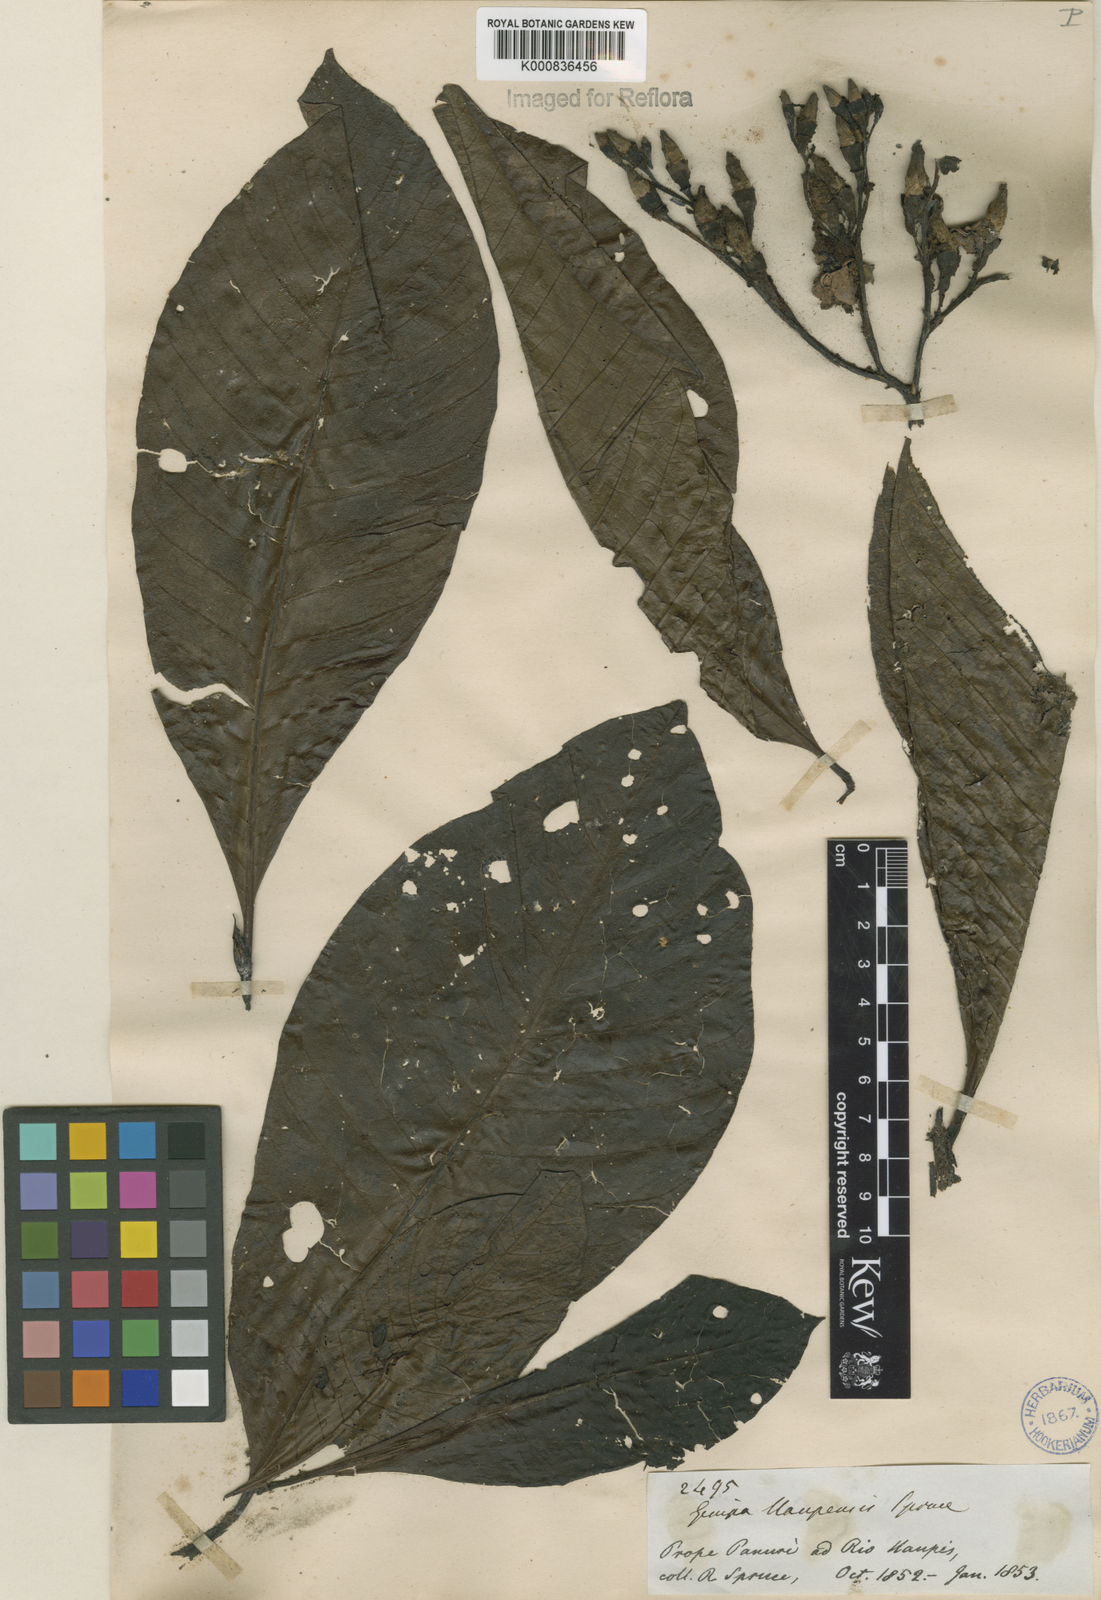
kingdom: Plantae
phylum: Tracheophyta
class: Magnoliopsida
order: Gentianales
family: Rubiaceae
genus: Genipa
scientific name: Genipa americana
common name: Genipap
